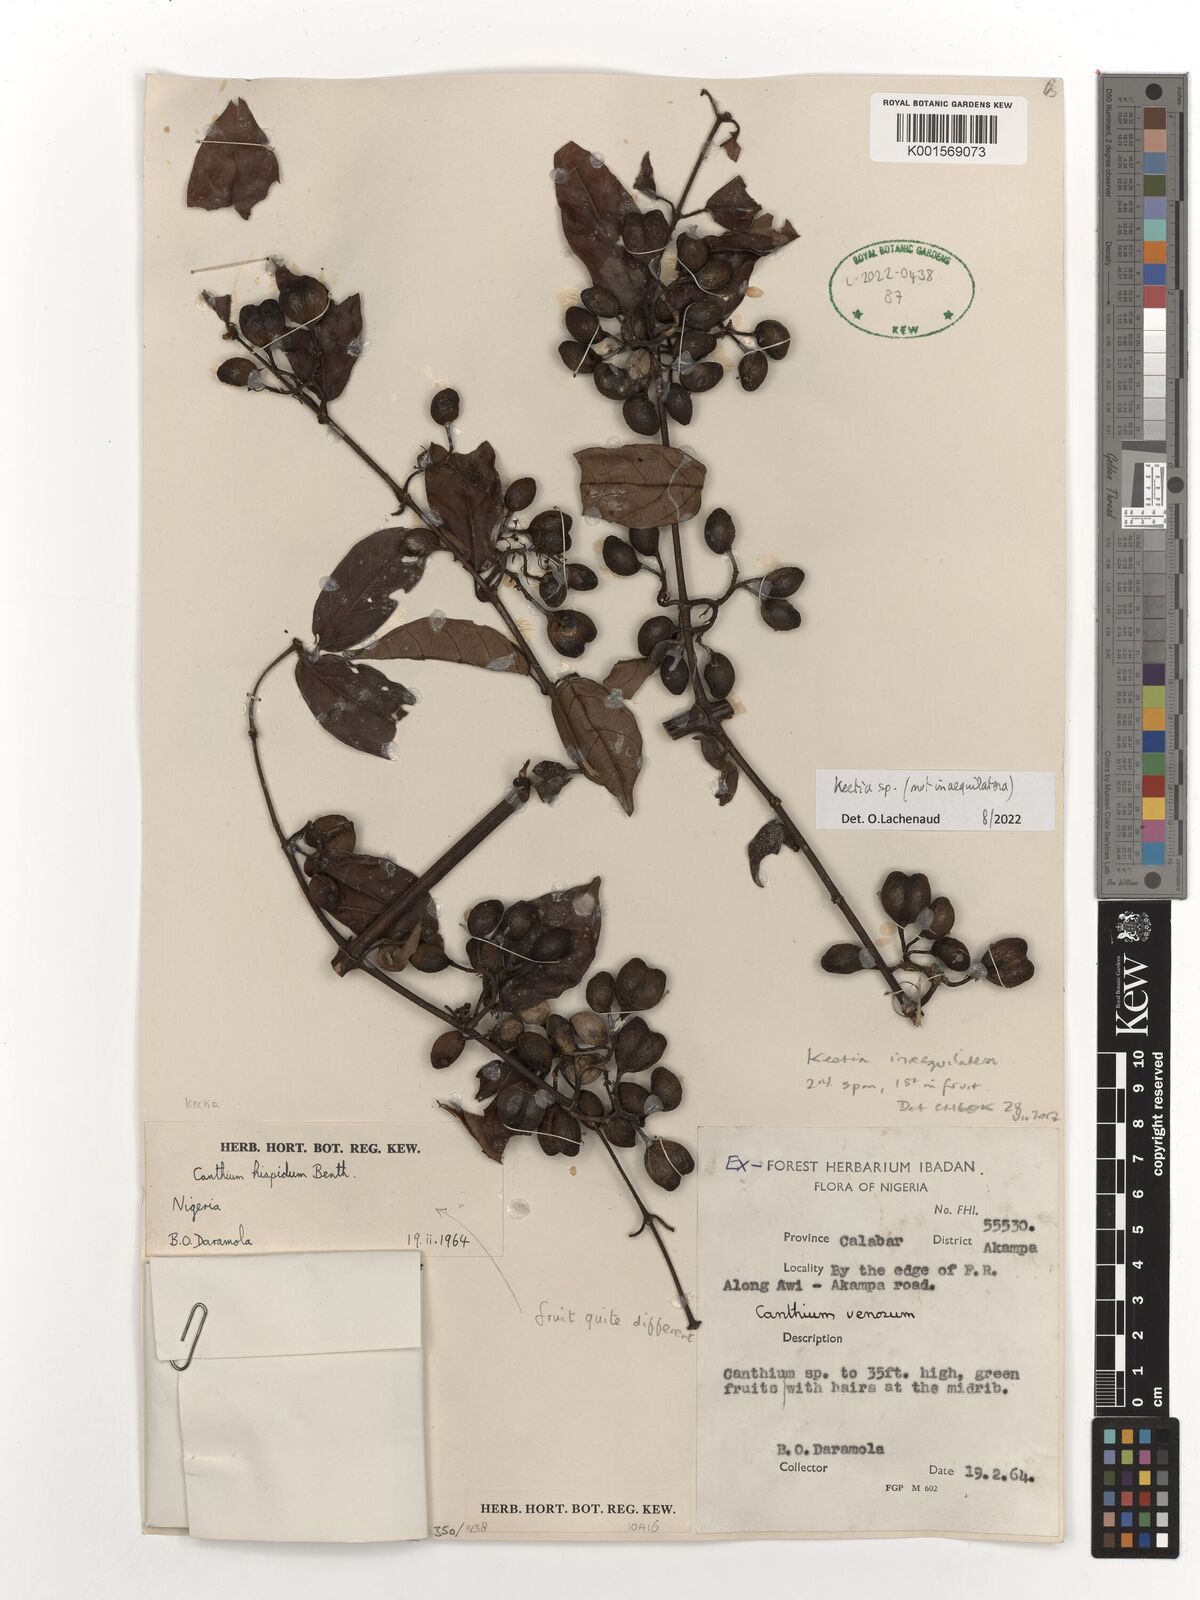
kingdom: Plantae
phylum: Tracheophyta
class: Magnoliopsida
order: Gentianales
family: Rubiaceae
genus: Keetia
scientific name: Keetia
